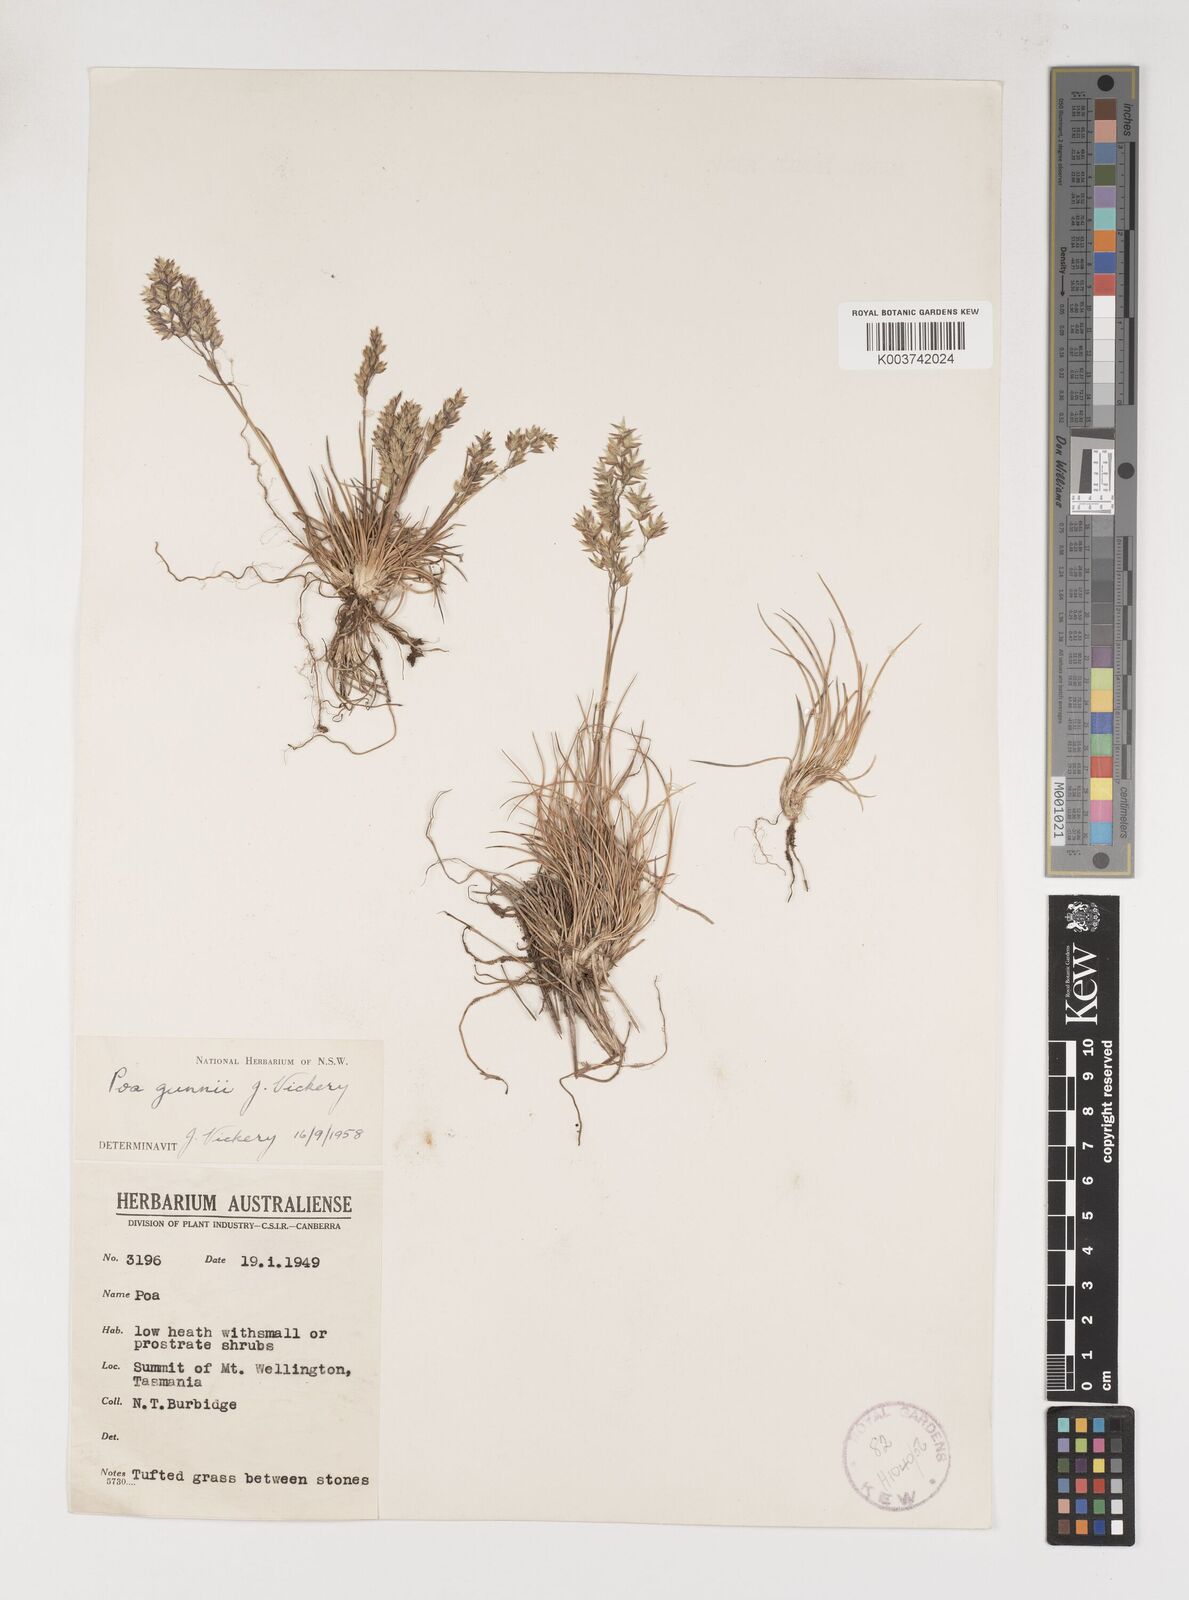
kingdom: Plantae
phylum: Tracheophyta
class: Liliopsida
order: Poales
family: Poaceae
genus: Poa
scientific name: Poa gunnii
